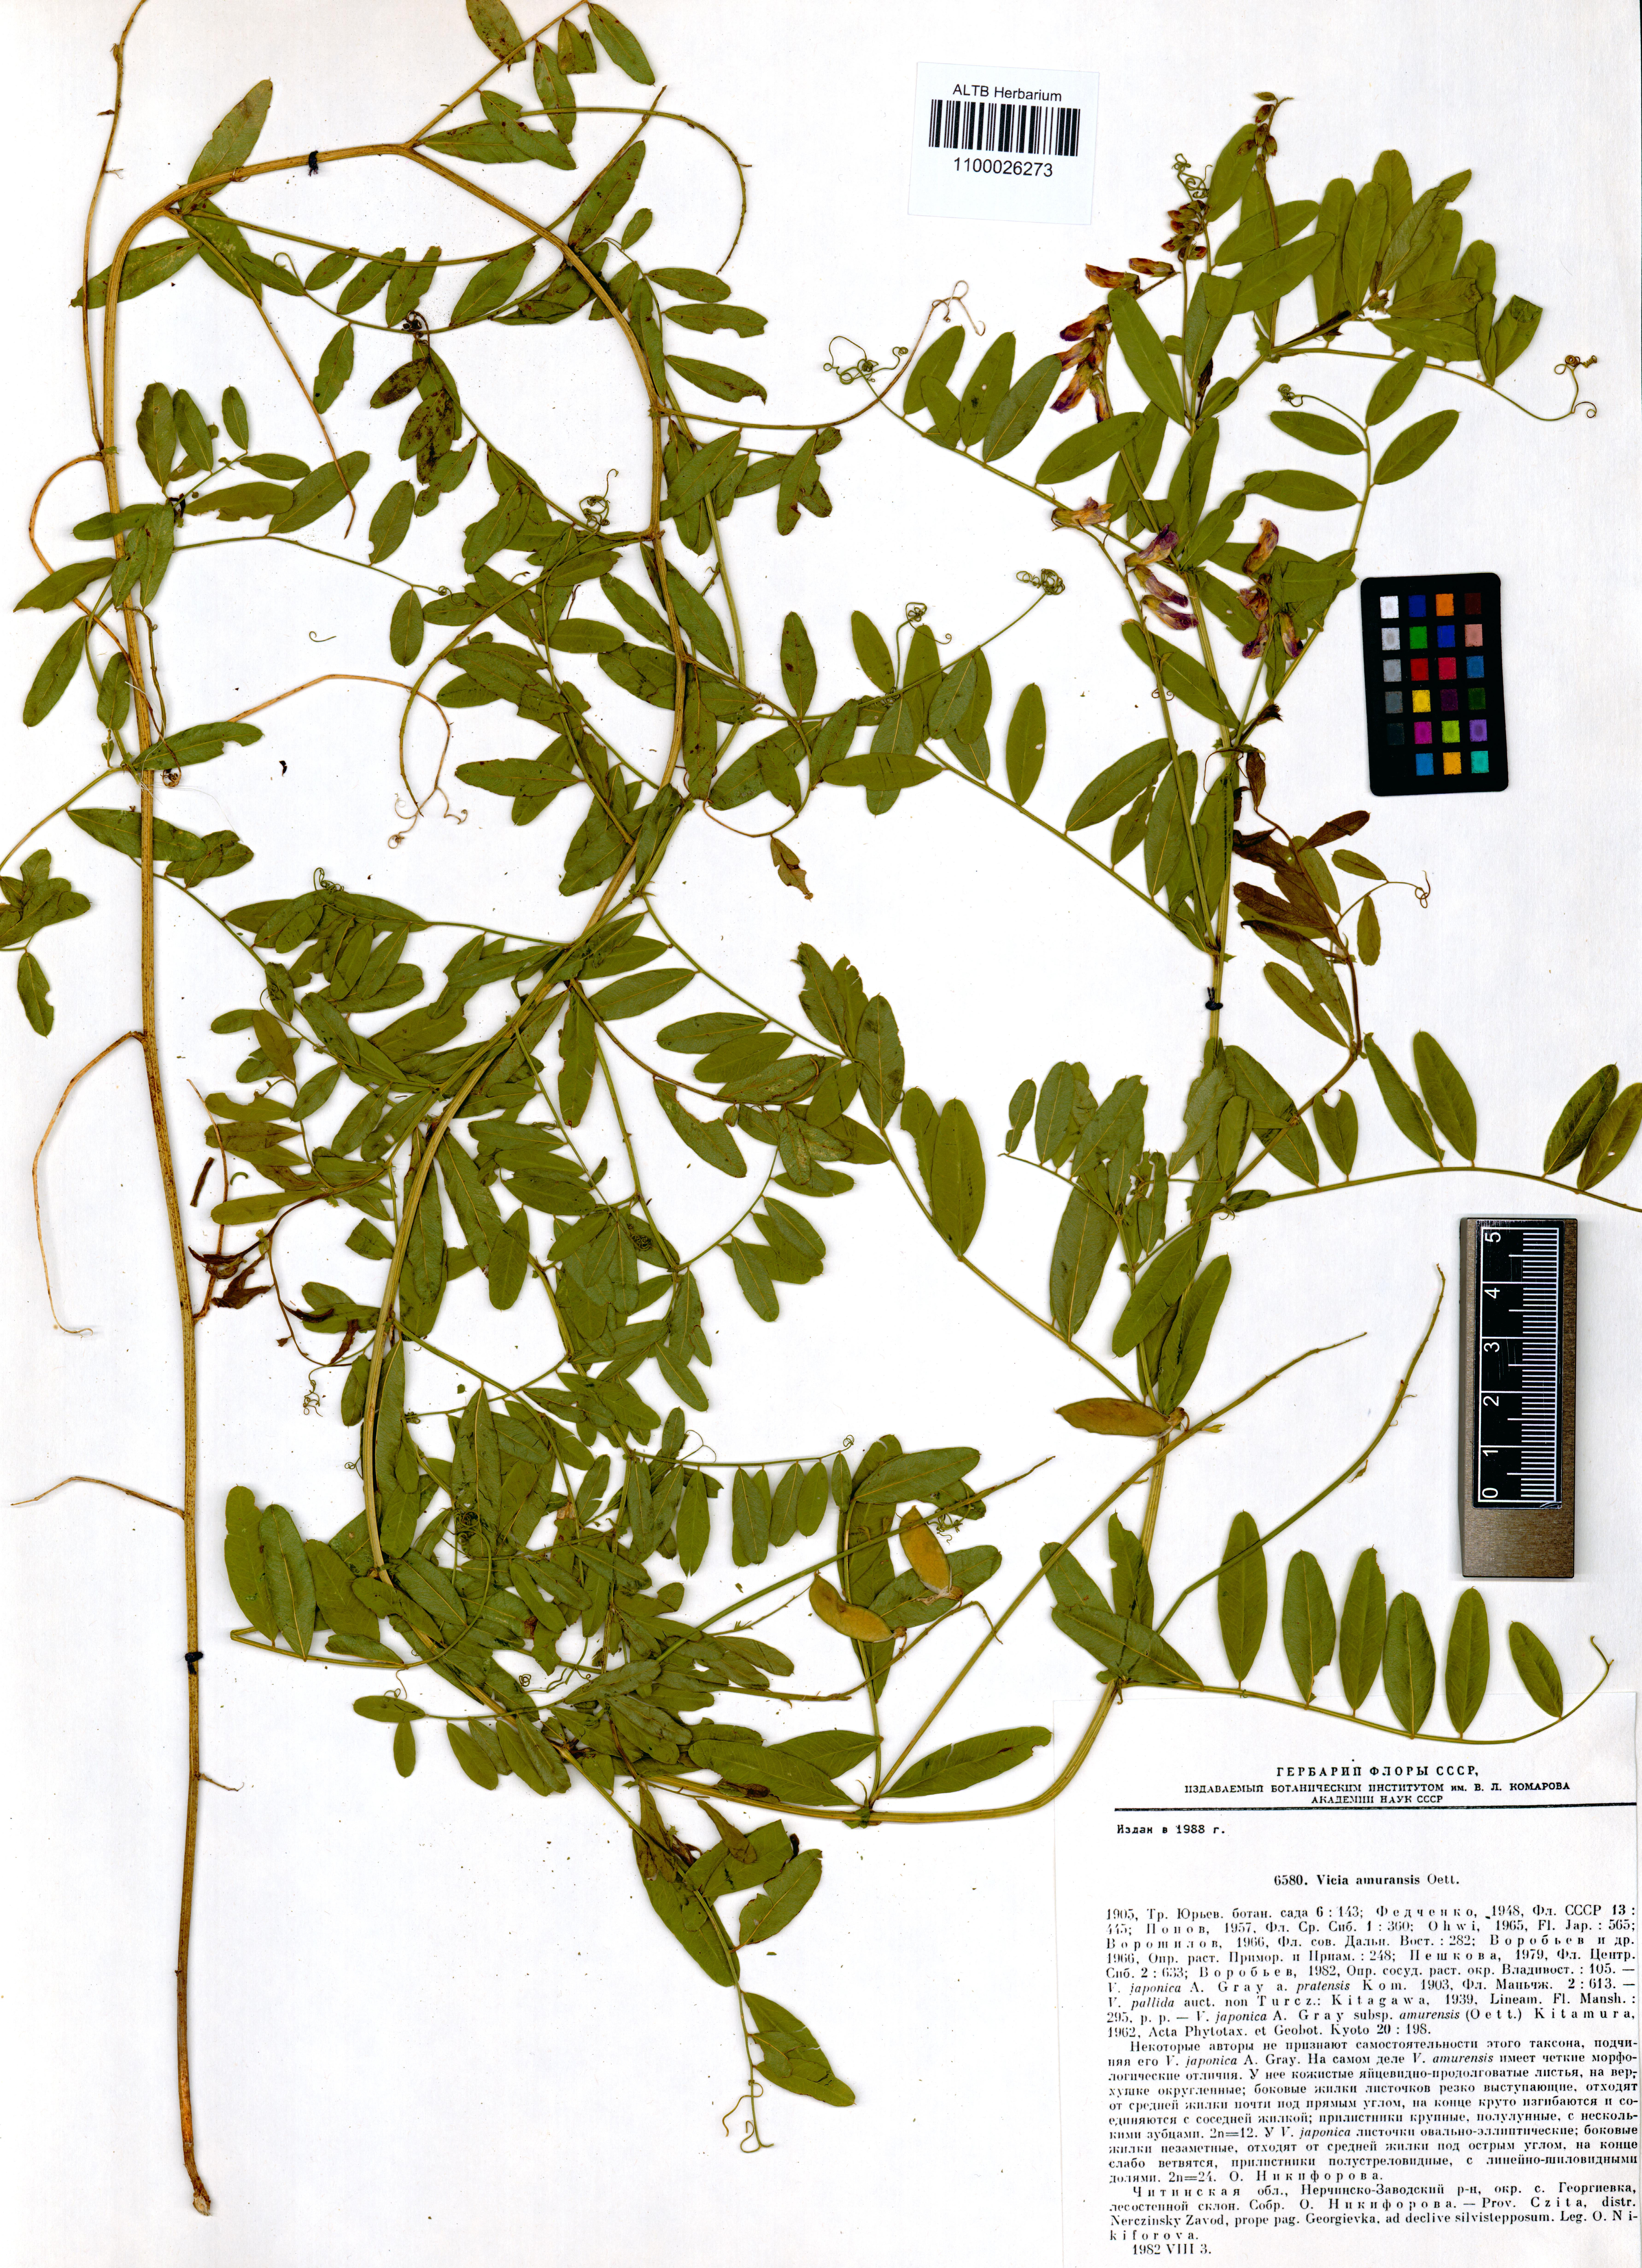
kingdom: Plantae
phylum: Tracheophyta
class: Magnoliopsida
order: Fabales
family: Fabaceae
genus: Vicia
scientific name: Vicia amurensis
